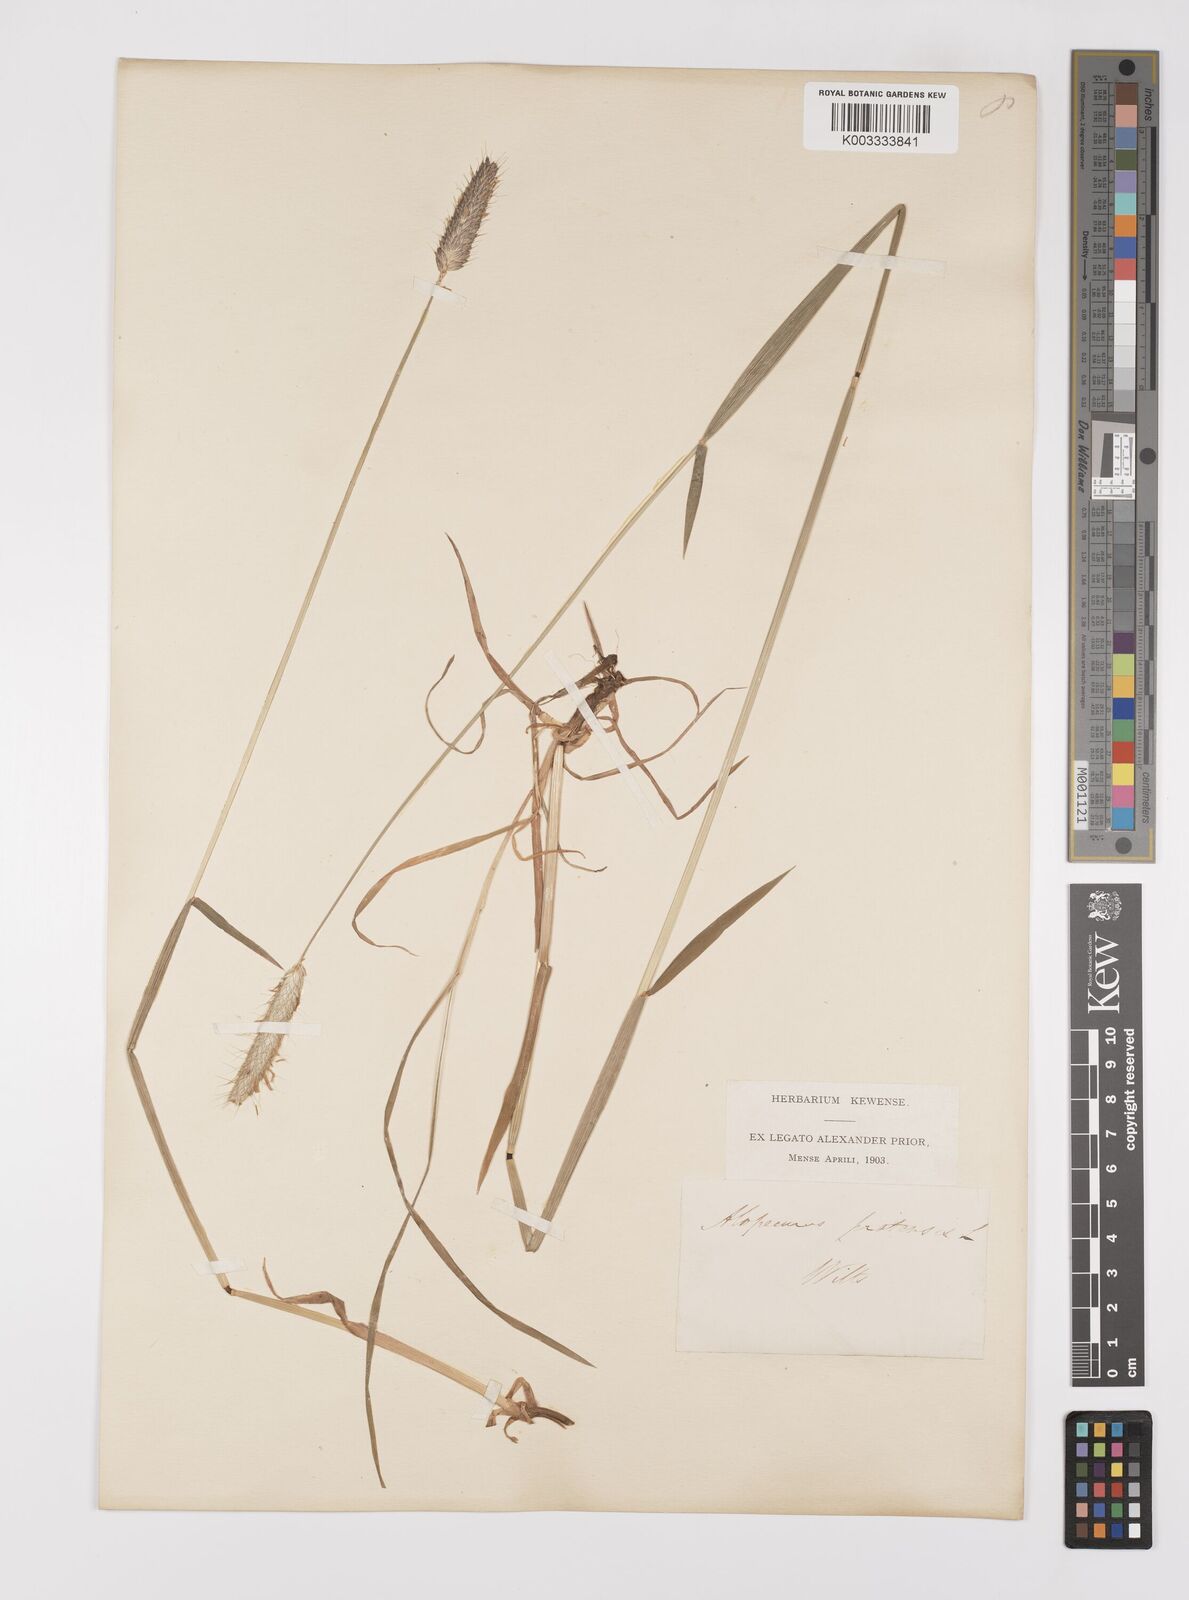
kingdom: Plantae
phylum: Tracheophyta
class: Liliopsida
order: Poales
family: Poaceae
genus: Alopecurus
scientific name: Alopecurus pratensis
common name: Meadow foxtail
